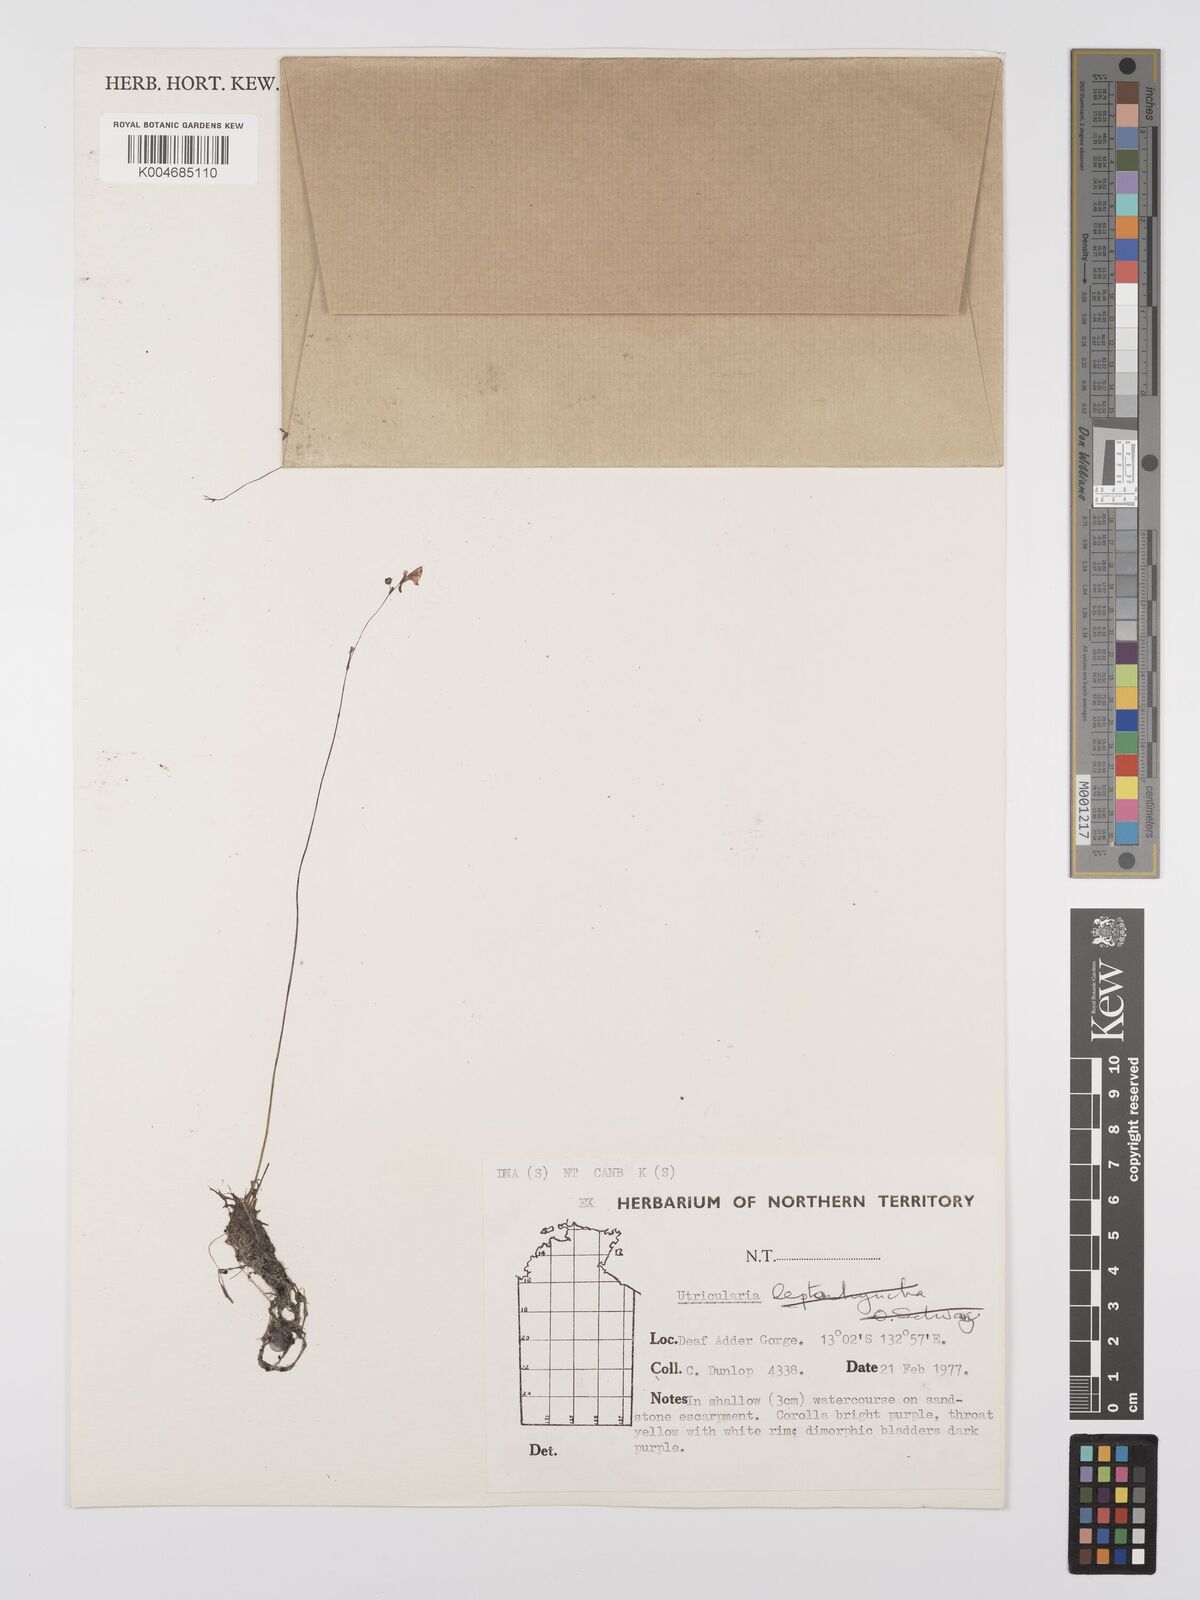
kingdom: Plantae
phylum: Tracheophyta
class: Magnoliopsida
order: Lamiales
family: Lentibulariaceae
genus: Utricularia
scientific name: Utricularia arnhemica
